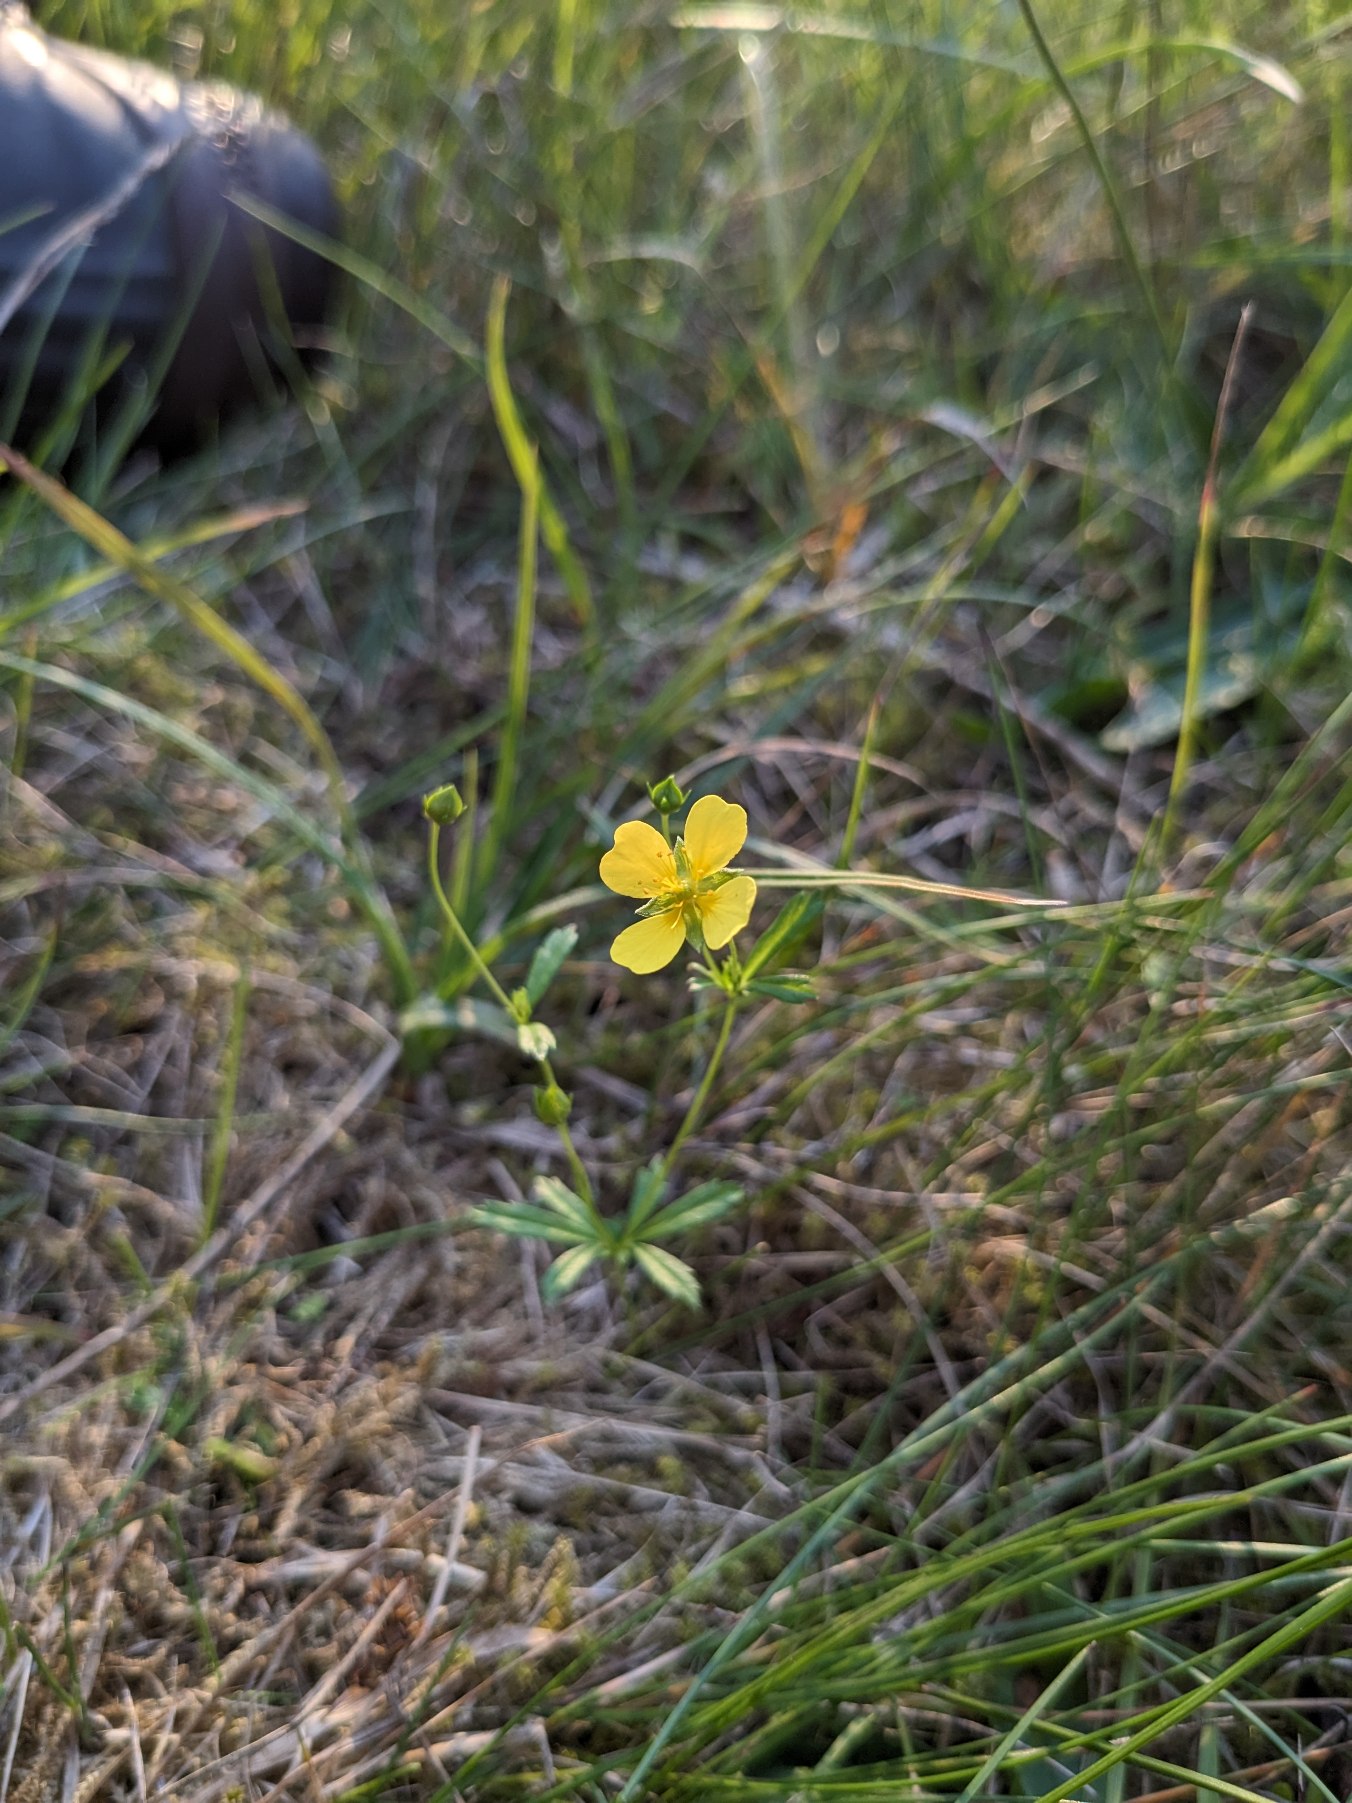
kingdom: Plantae
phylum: Tracheophyta
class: Magnoliopsida
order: Rosales
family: Rosaceae
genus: Potentilla
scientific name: Potentilla erecta
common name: Tormentil
